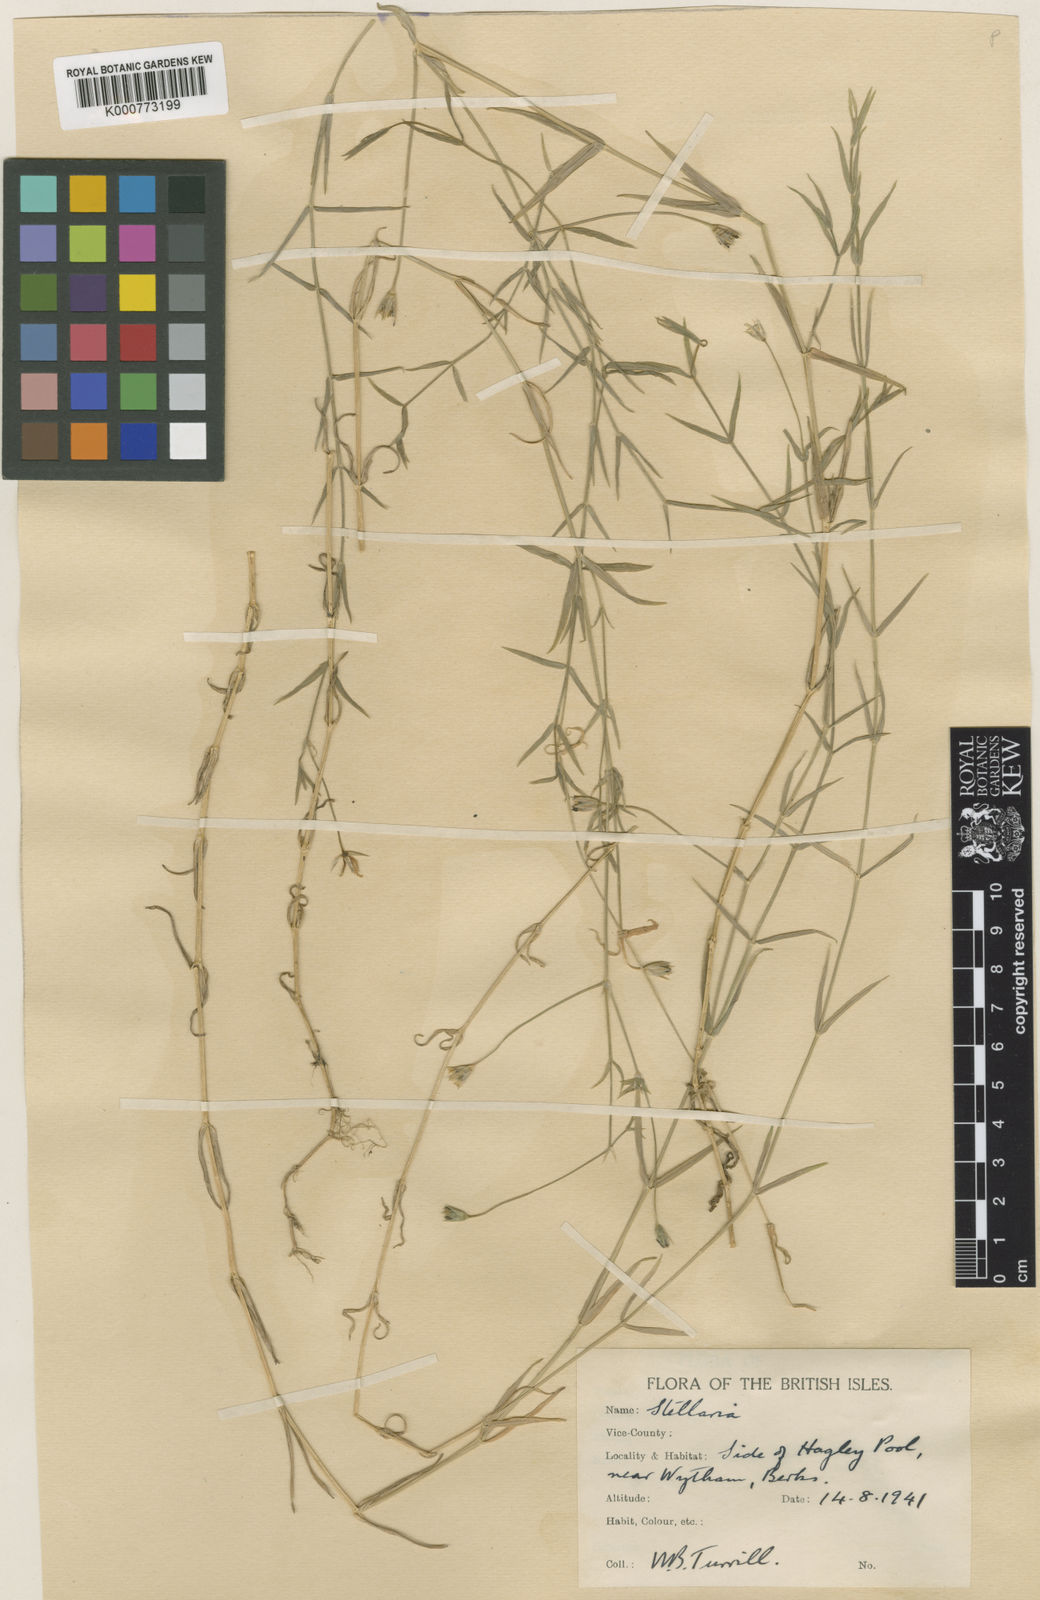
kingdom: Plantae
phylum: Tracheophyta
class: Magnoliopsida
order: Caryophyllales
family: Caryophyllaceae
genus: Stellaria
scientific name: Stellaria
